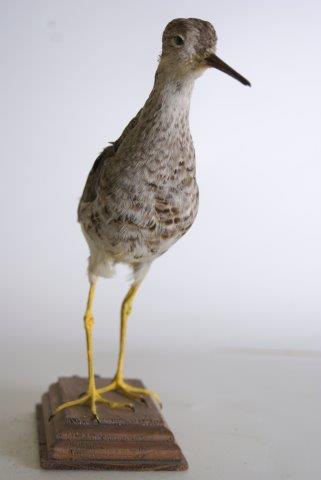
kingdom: Animalia
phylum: Chordata
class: Aves
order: Charadriiformes
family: Scolopacidae
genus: Calidris
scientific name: Calidris pugnax
